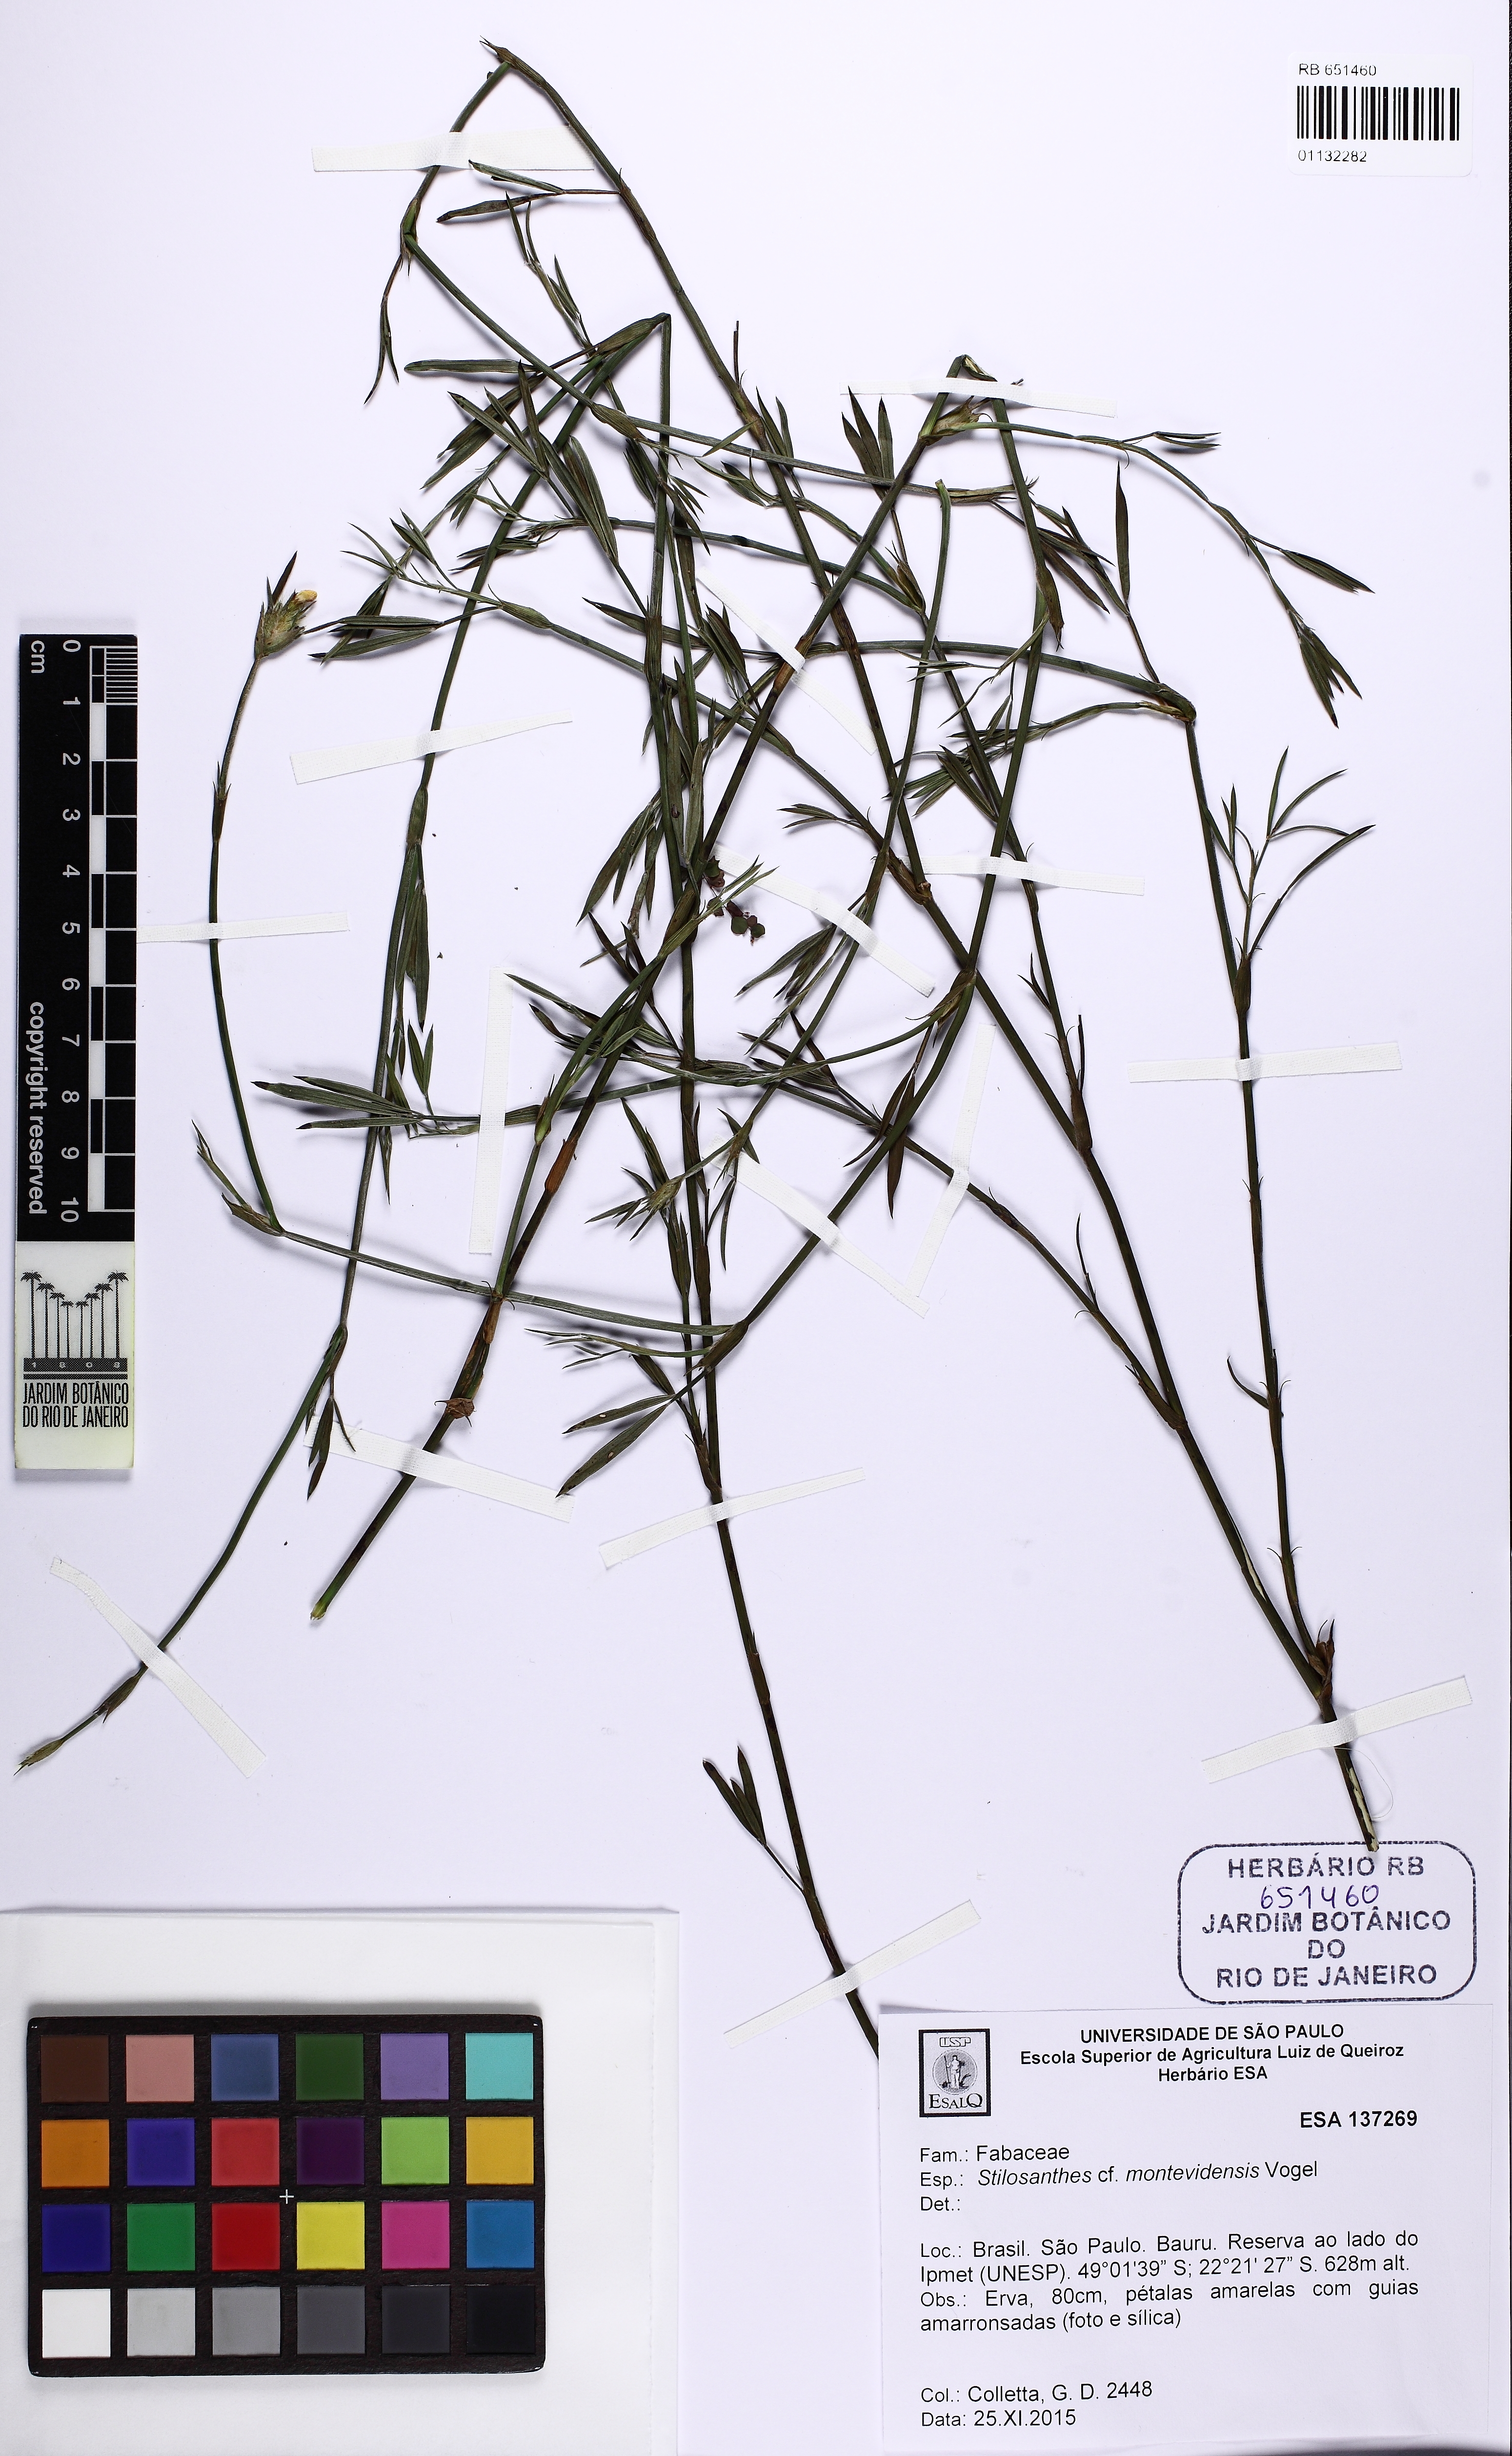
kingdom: Plantae
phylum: Tracheophyta
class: Magnoliopsida
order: Fabales
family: Fabaceae
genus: Stylosanthes
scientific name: Stylosanthes guianensis
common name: Pencil flower
